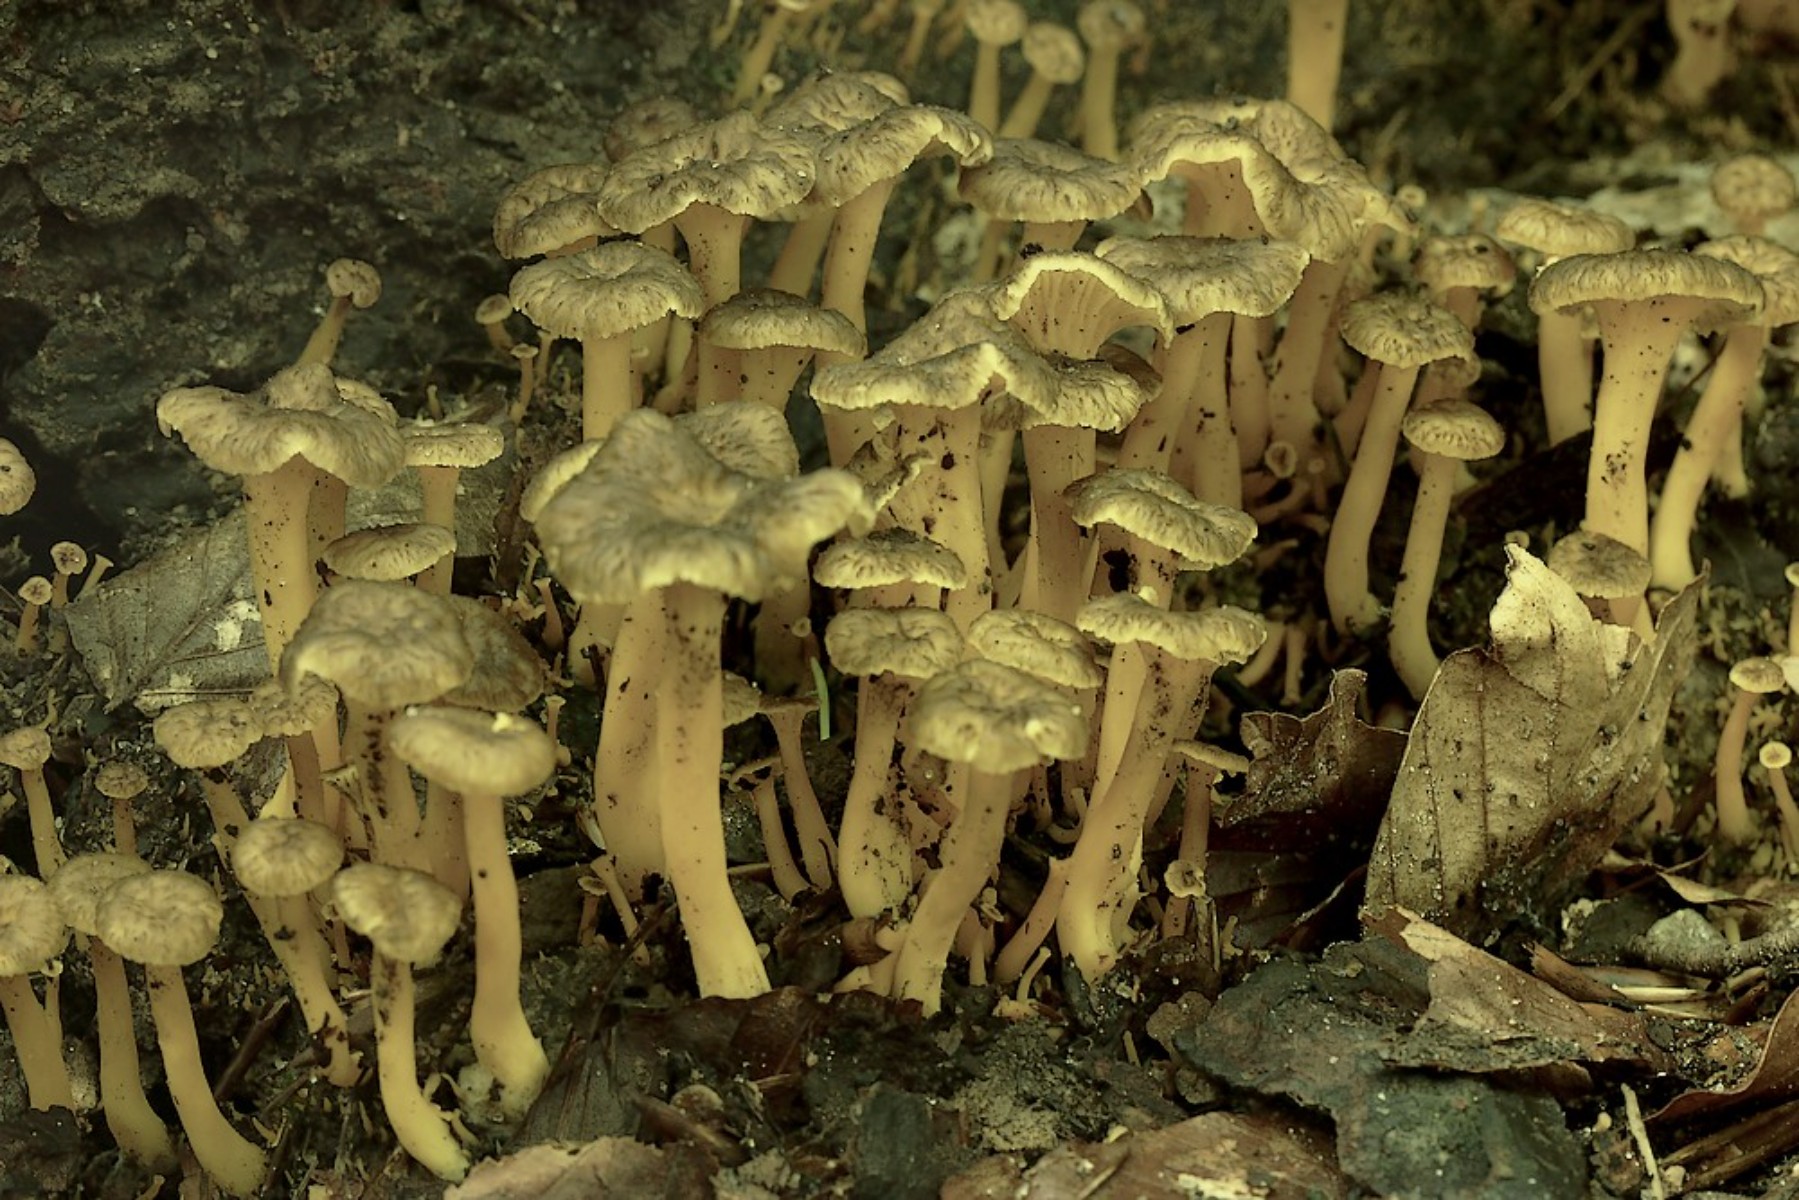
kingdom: Fungi
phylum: Basidiomycota
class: Agaricomycetes
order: Cantharellales
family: Hydnaceae
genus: Craterellus
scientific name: Craterellus tubaeformis
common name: tragt-kantarel
